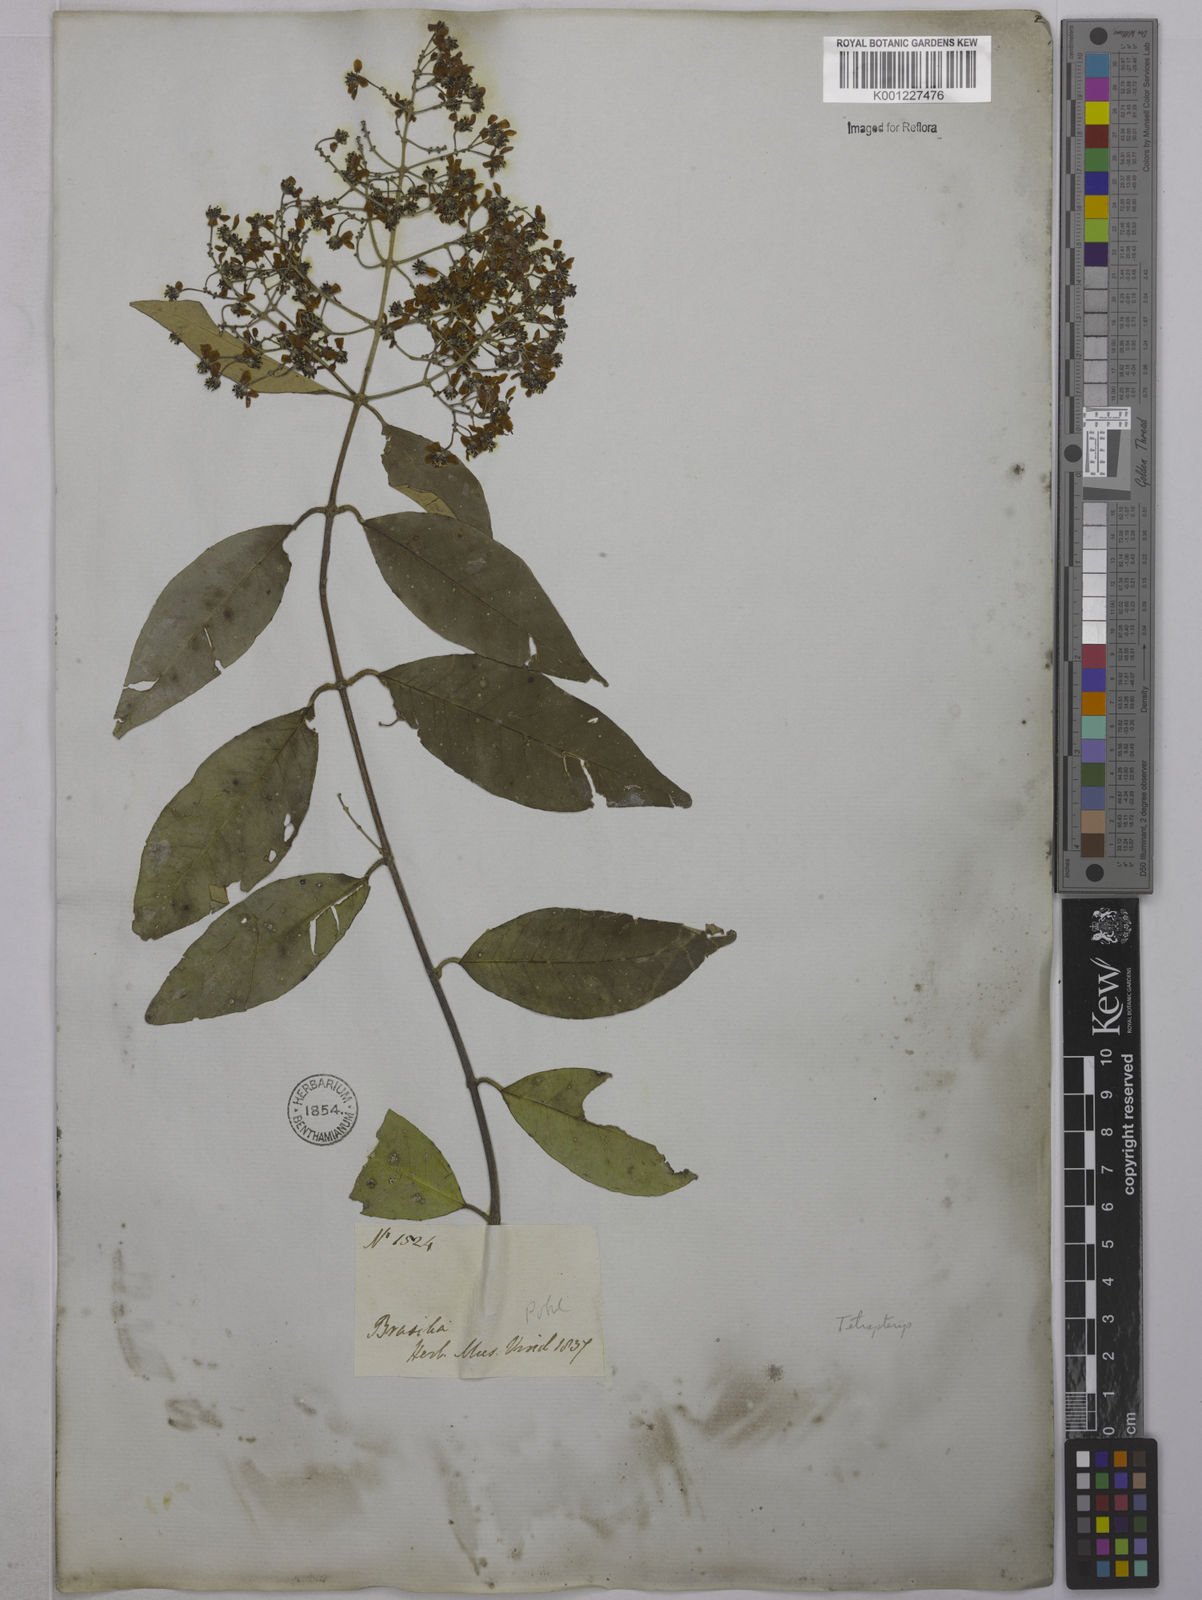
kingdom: Plantae
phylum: Tracheophyta
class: Magnoliopsida
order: Malpighiales
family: Malpighiaceae
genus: Tetrapterys
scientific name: Tetrapterys
